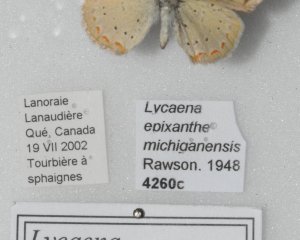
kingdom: Animalia
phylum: Arthropoda
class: Insecta
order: Lepidoptera
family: Sesiidae
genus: Sesia
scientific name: Sesia Lycaena epixanthe
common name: Bog Copper
